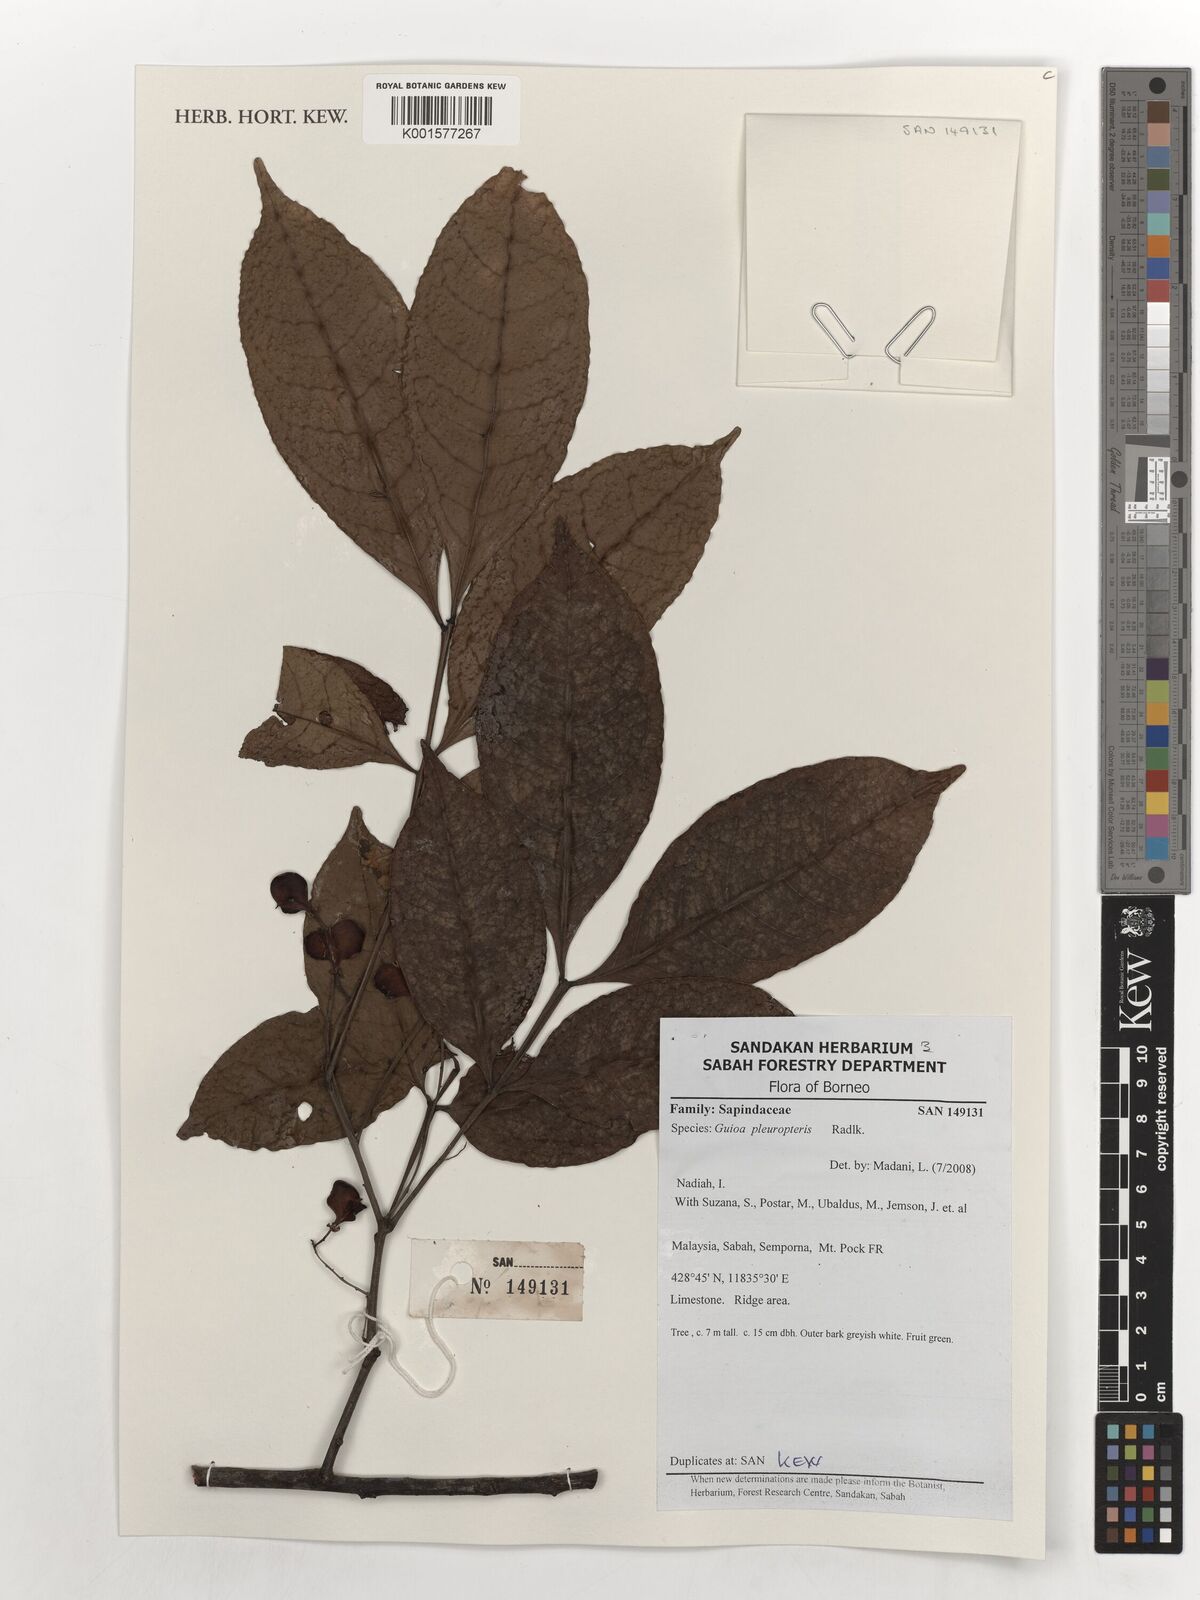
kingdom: Plantae
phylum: Tracheophyta
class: Magnoliopsida
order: Sapindales
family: Sapindaceae
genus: Guioa
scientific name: Guioa pleuropteris
